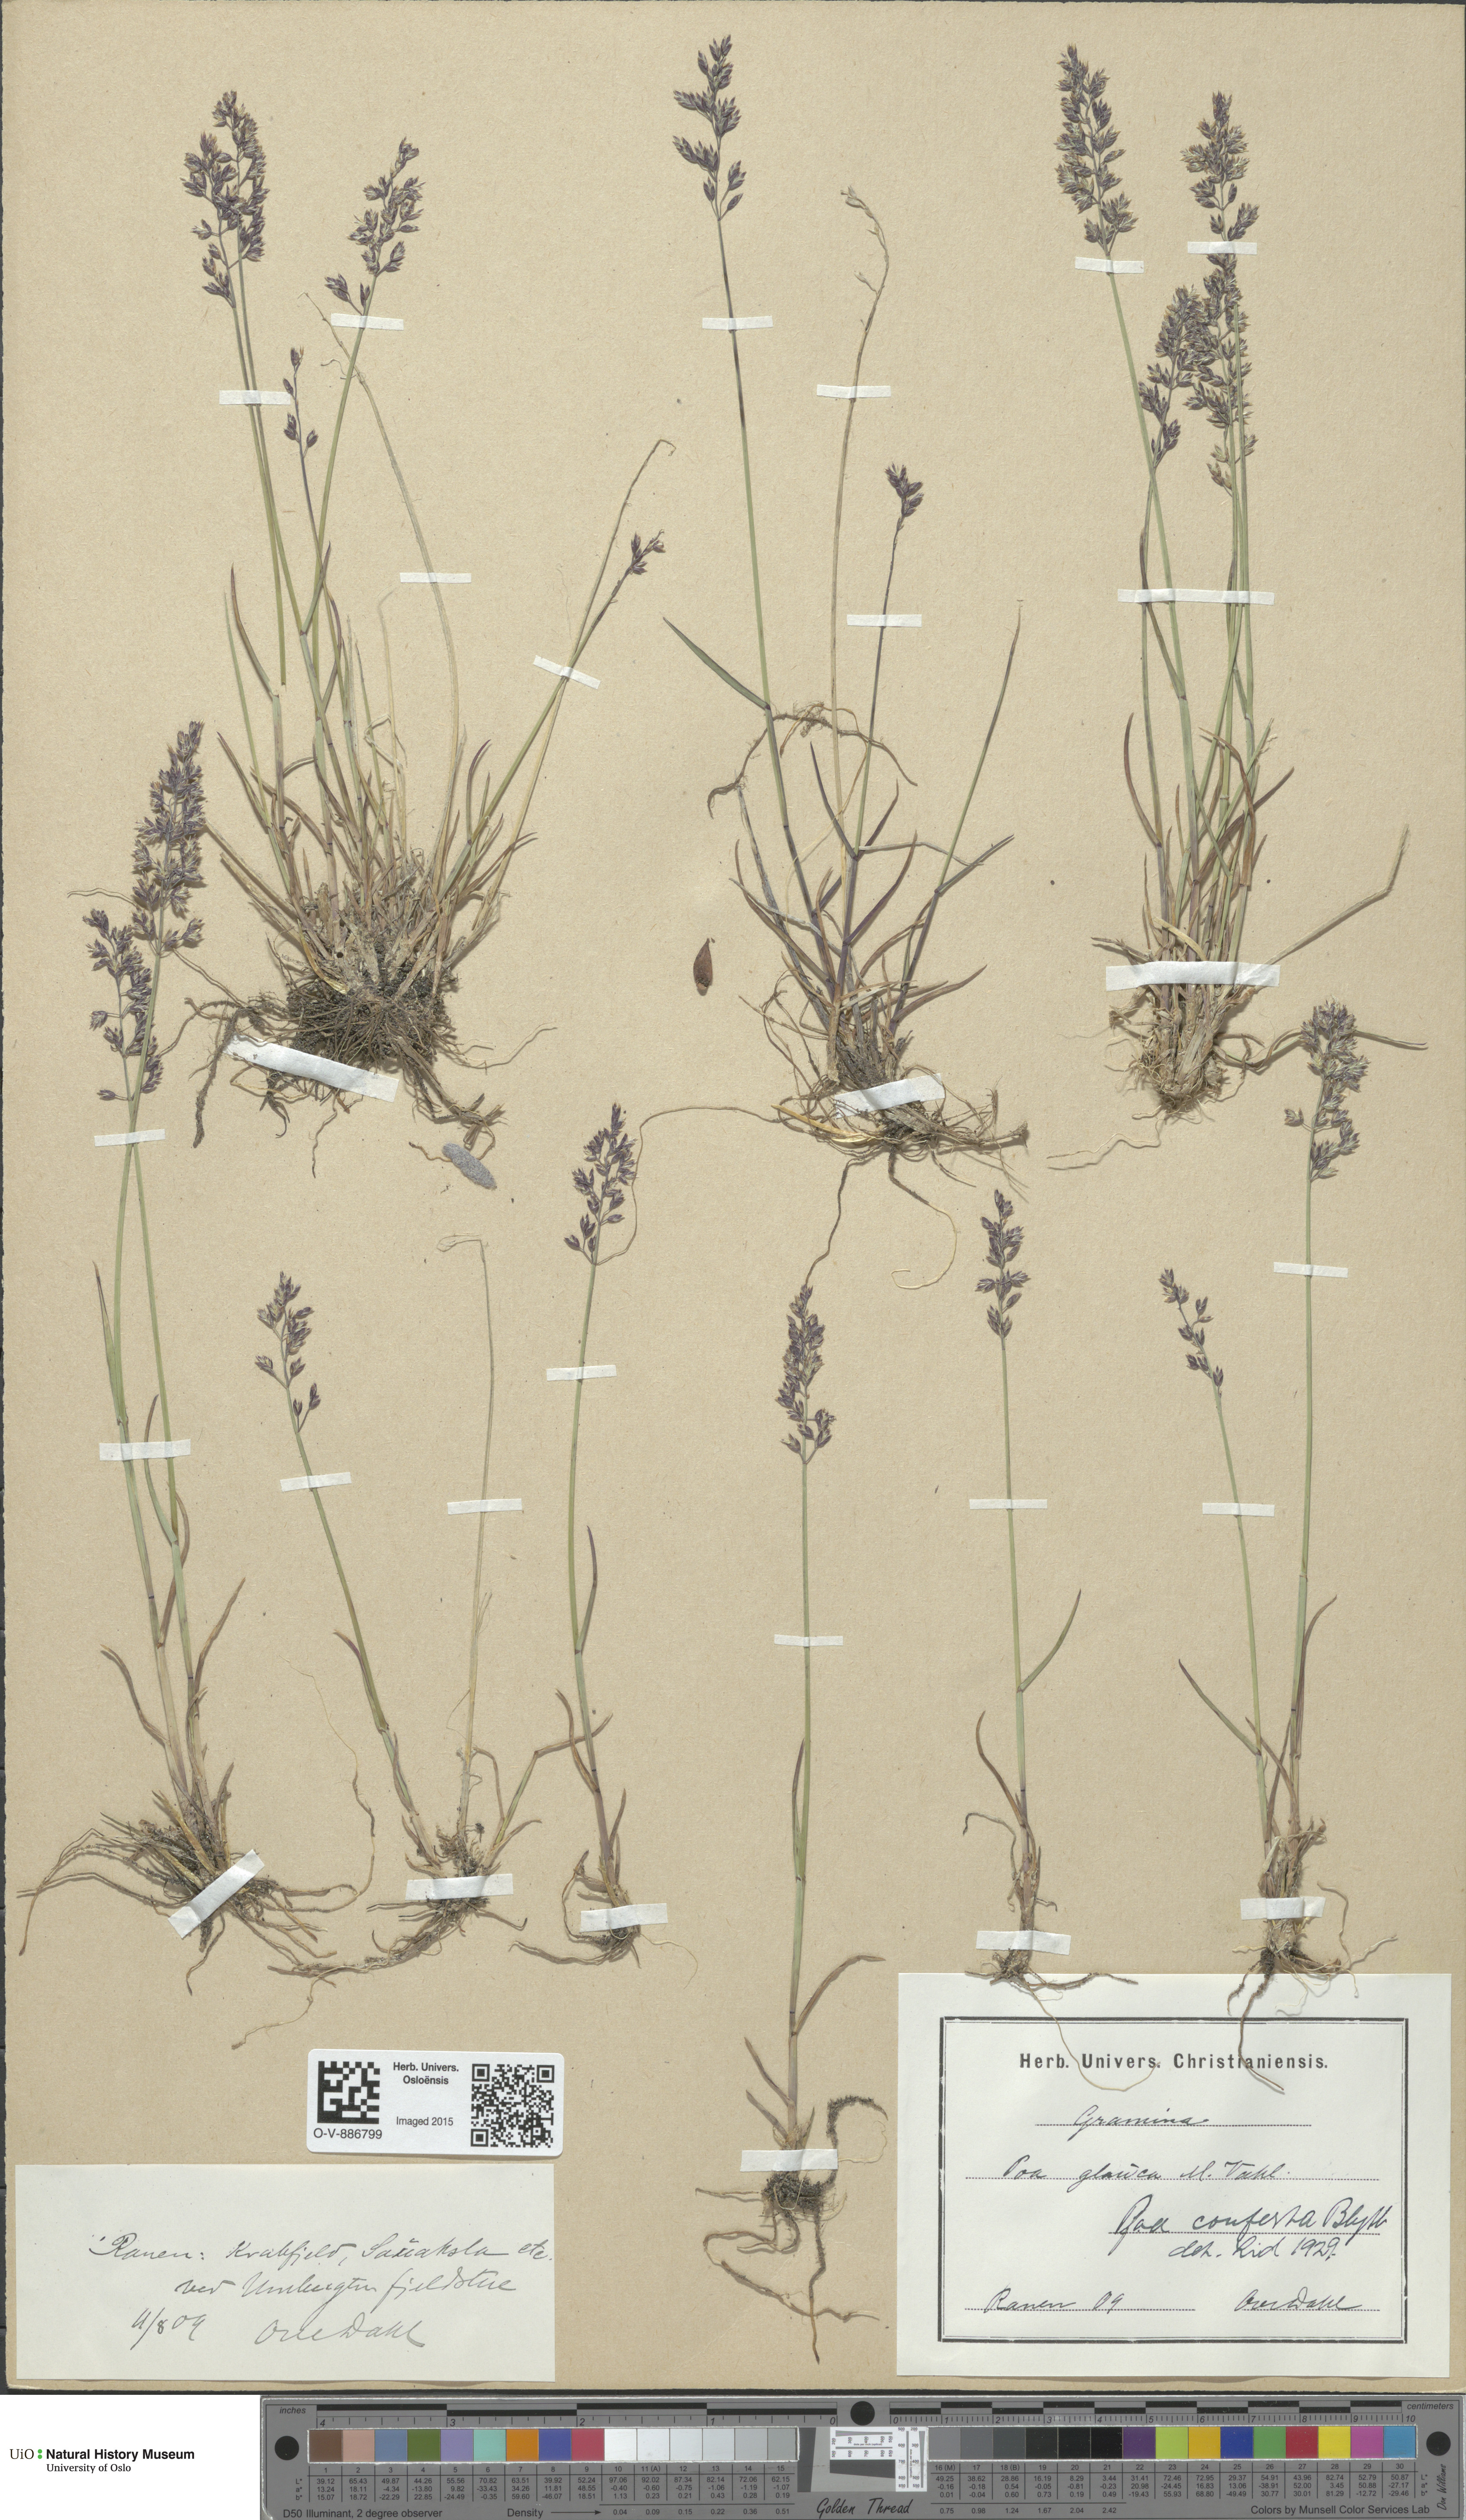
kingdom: Plantae
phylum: Tracheophyta
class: Liliopsida
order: Poales
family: Poaceae
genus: Poa
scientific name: Poa glauca
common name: Glaucous bluegrass
